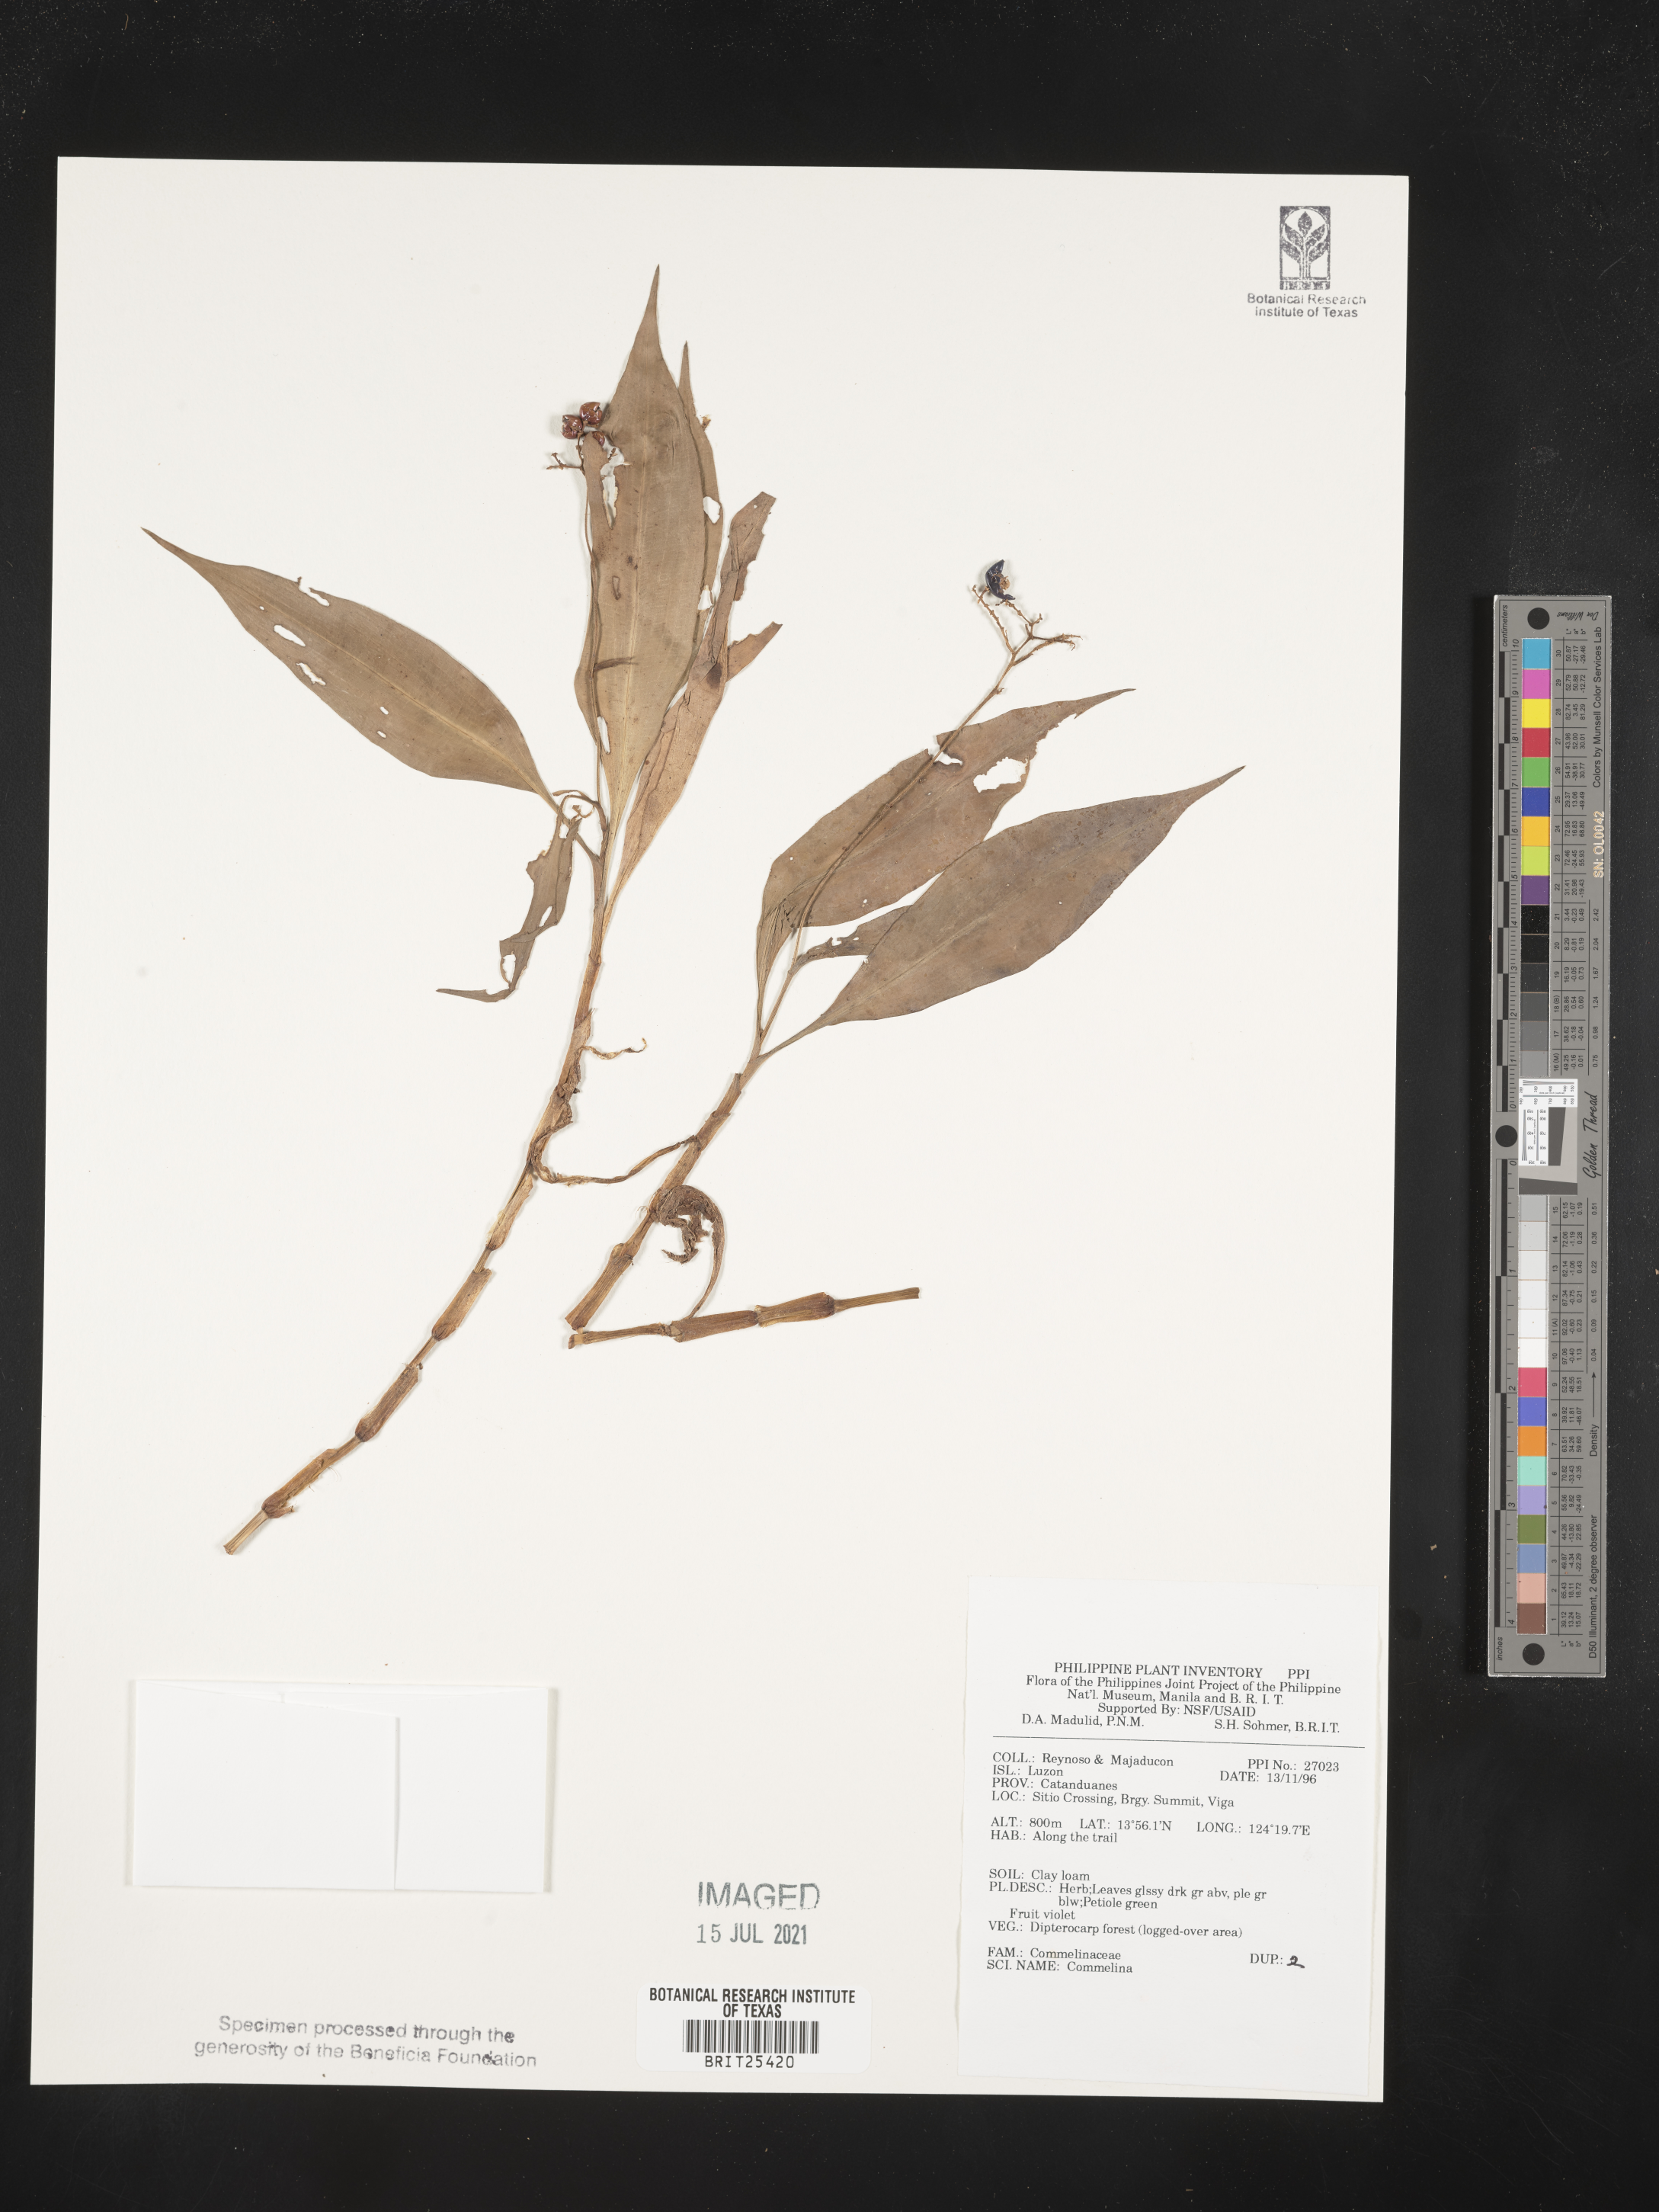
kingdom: Plantae
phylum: Tracheophyta
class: Liliopsida
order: Commelinales
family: Commelinaceae
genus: Commelina
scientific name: Commelina
